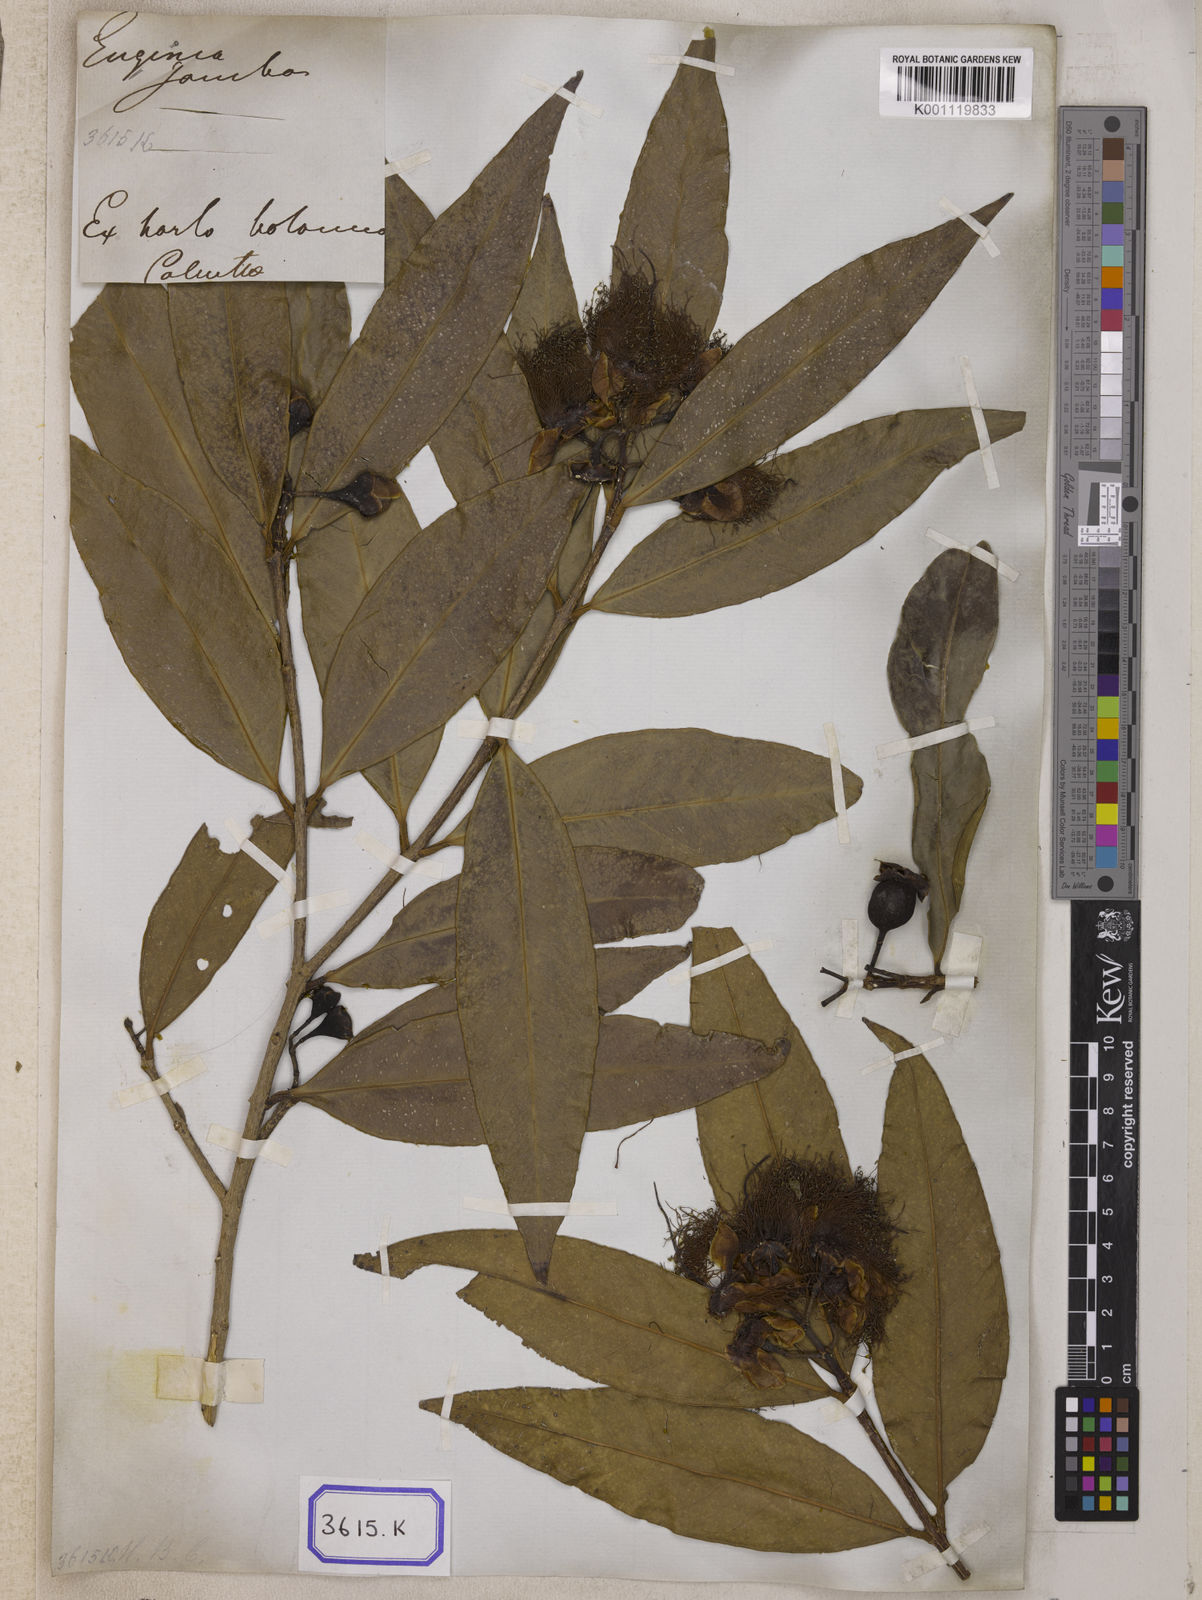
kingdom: Plantae
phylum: Tracheophyta
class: Magnoliopsida
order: Myrtales
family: Myrtaceae
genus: Syzygium
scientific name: Syzygium jambos
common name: Malabar plum
